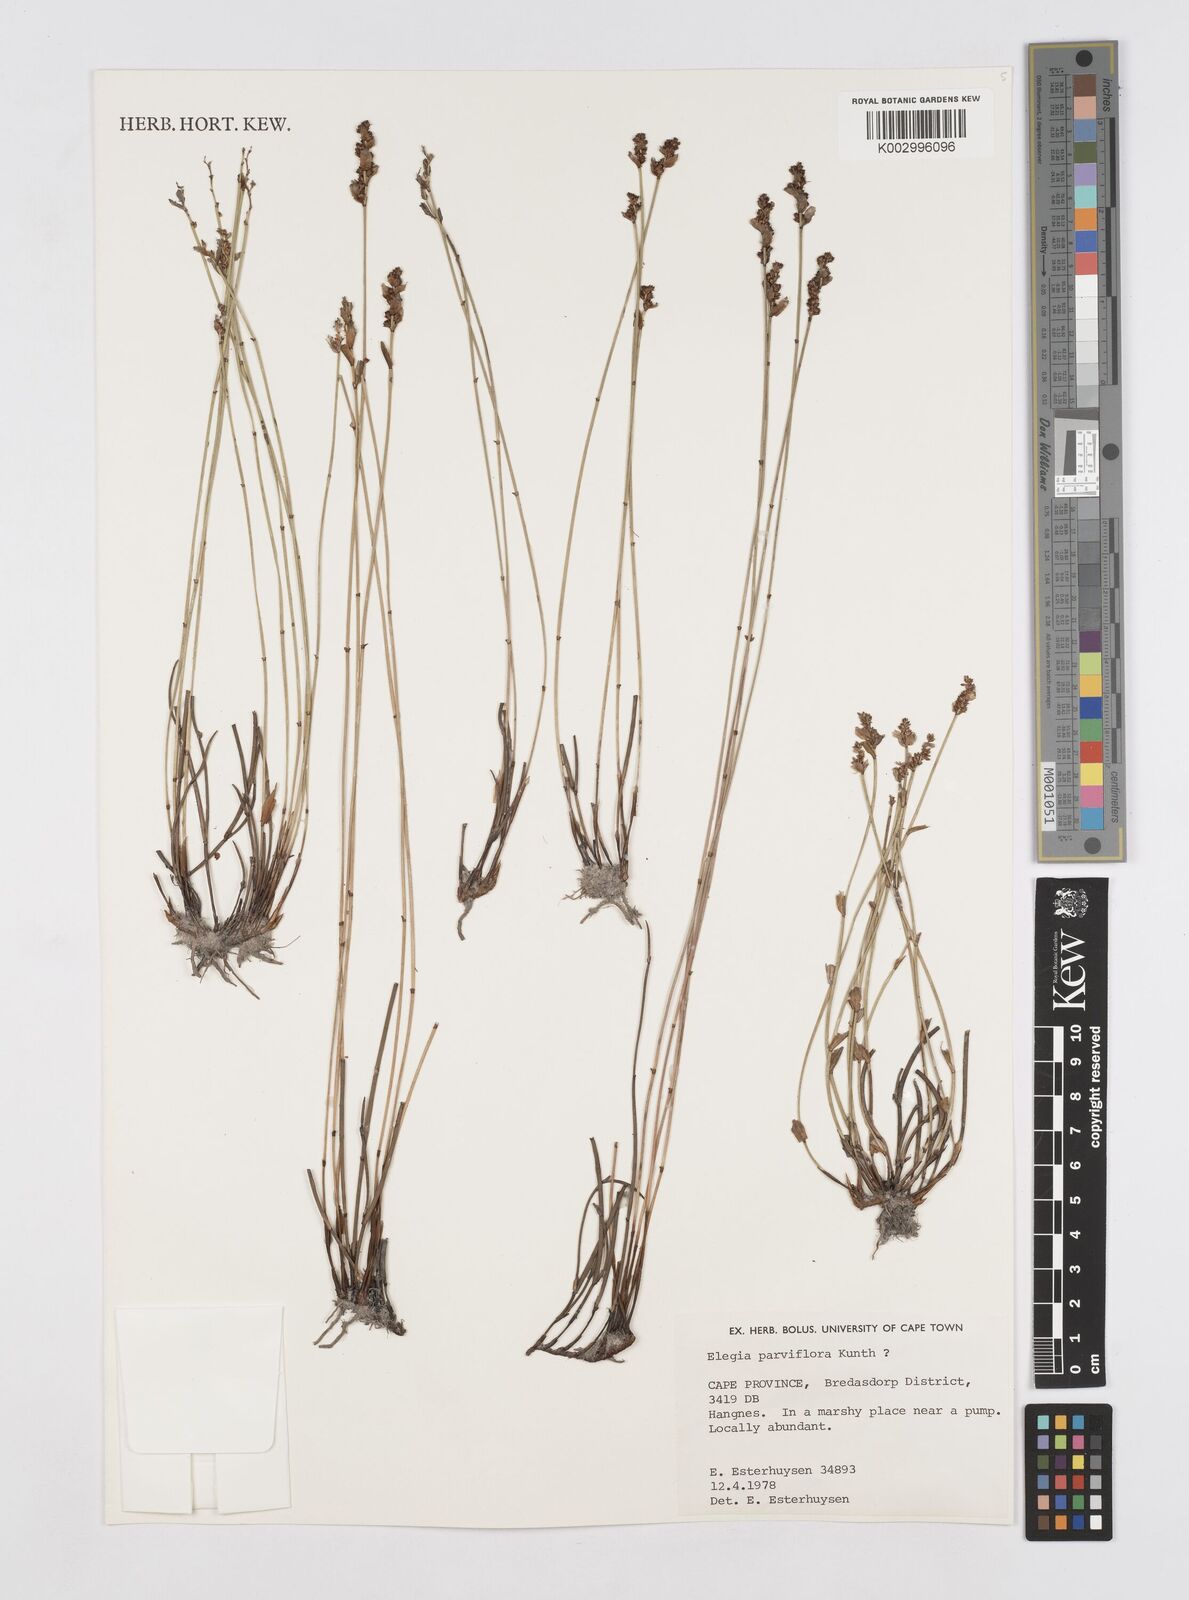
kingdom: Plantae
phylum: Tracheophyta
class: Liliopsida
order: Poales
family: Restionaceae
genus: Cannomois
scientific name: Cannomois parviflora
